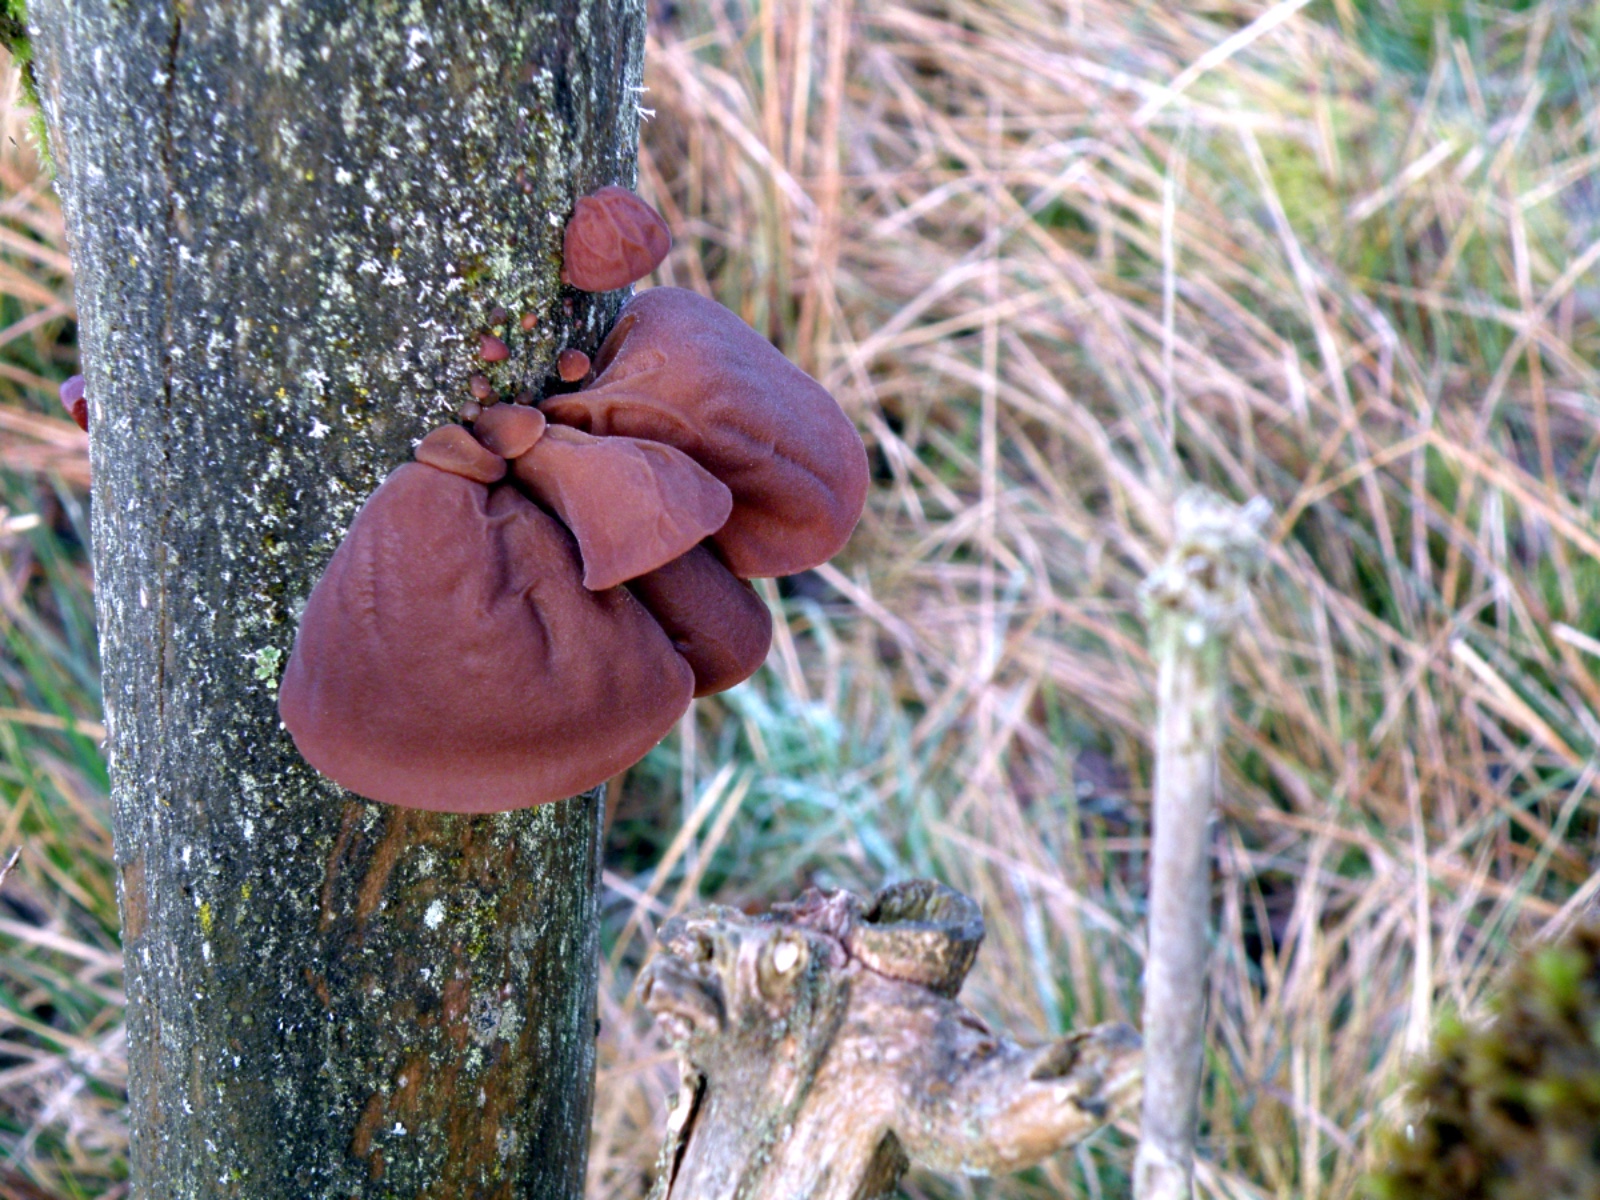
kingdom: Fungi
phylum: Basidiomycota
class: Agaricomycetes
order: Auriculariales
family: Auriculariaceae
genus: Auricularia
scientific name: Auricularia auricula-judae
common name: almindelig judasøre
